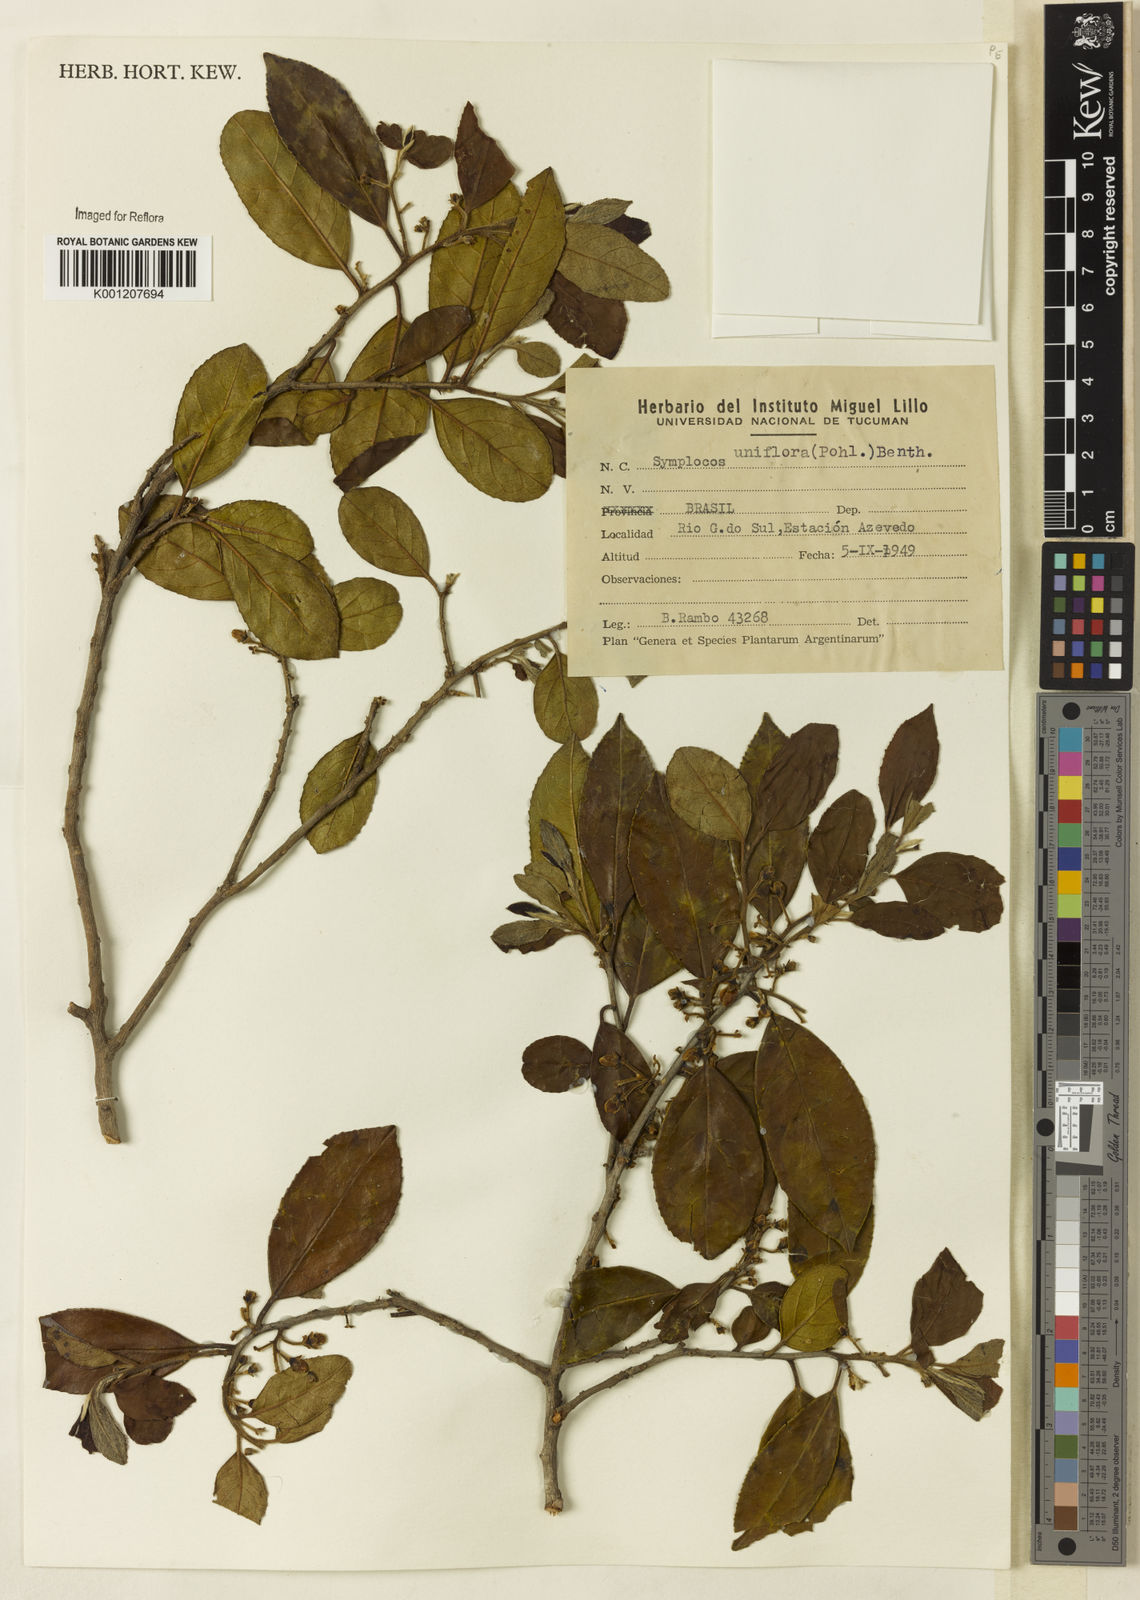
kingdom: Plantae
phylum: Tracheophyta
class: Magnoliopsida
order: Ericales
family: Symplocaceae
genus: Symplocos
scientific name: Symplocos uniflora
